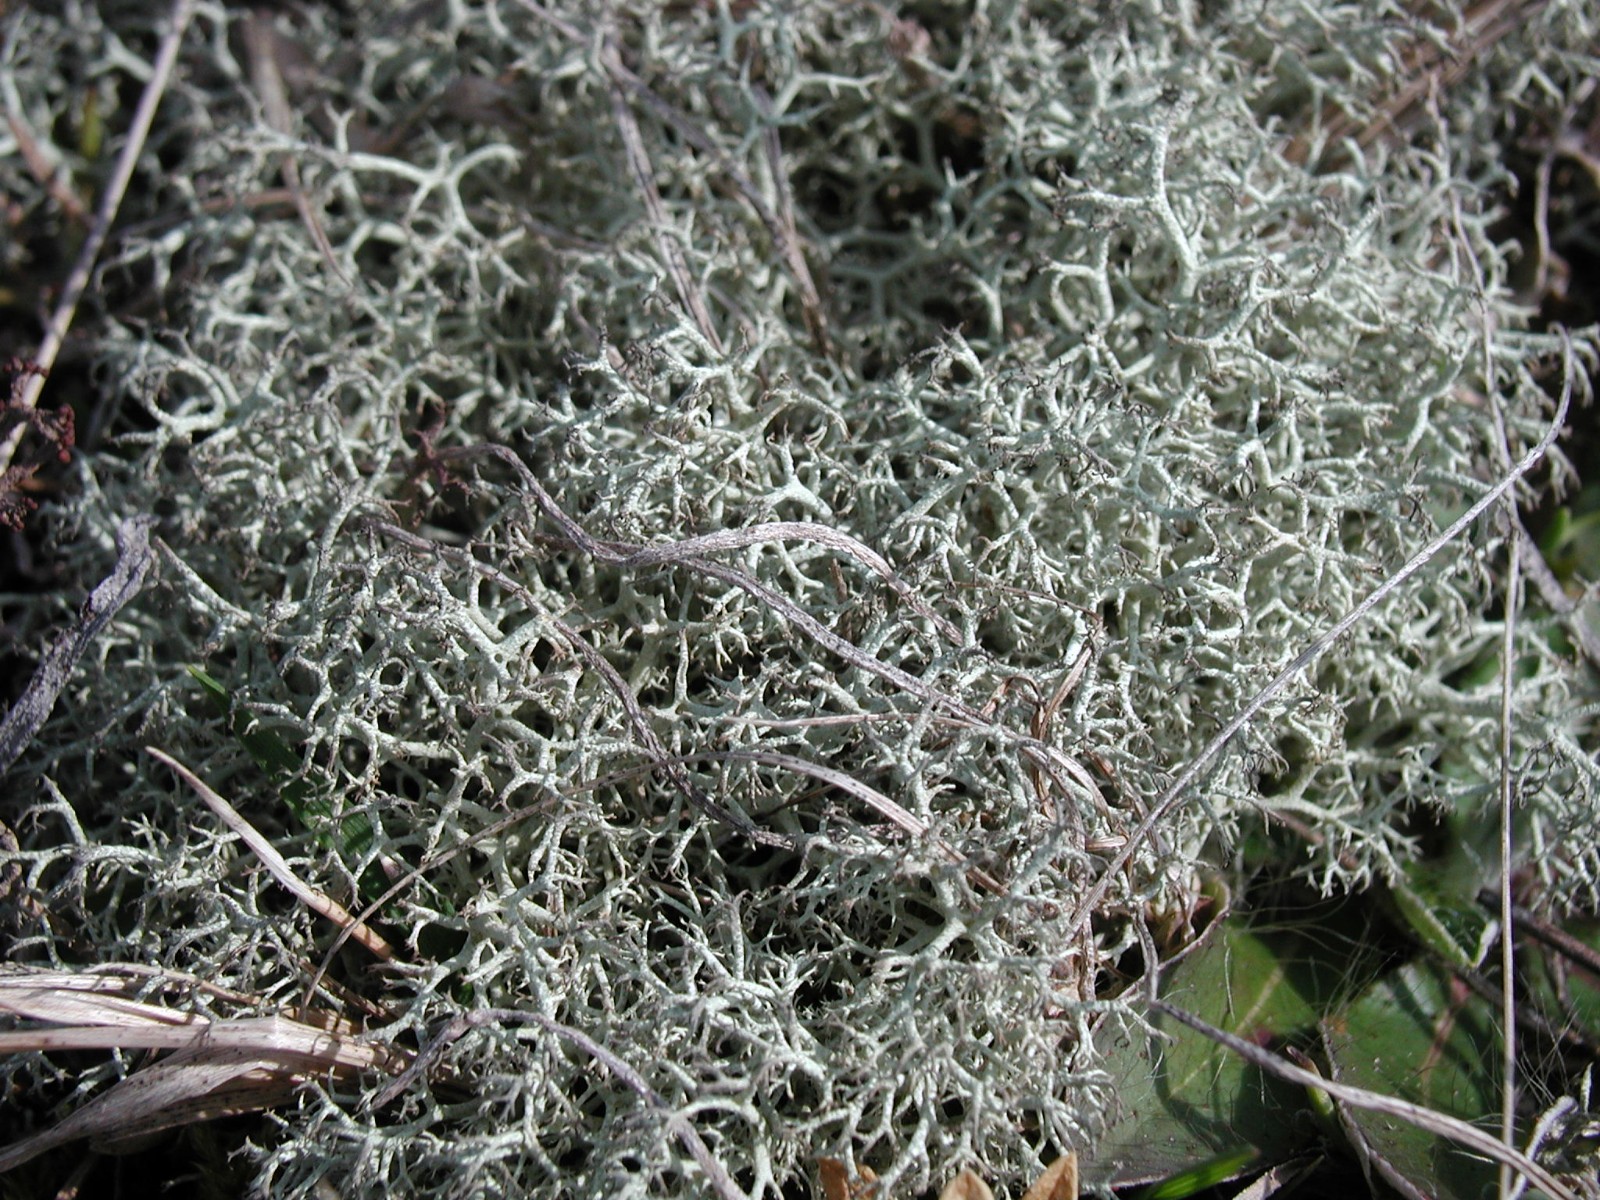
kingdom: Fungi
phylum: Ascomycota
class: Lecanoromycetes
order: Lecanorales
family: Cladoniaceae
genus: Cladonia
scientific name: Cladonia portentosa
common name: hede-rensdyrlav
